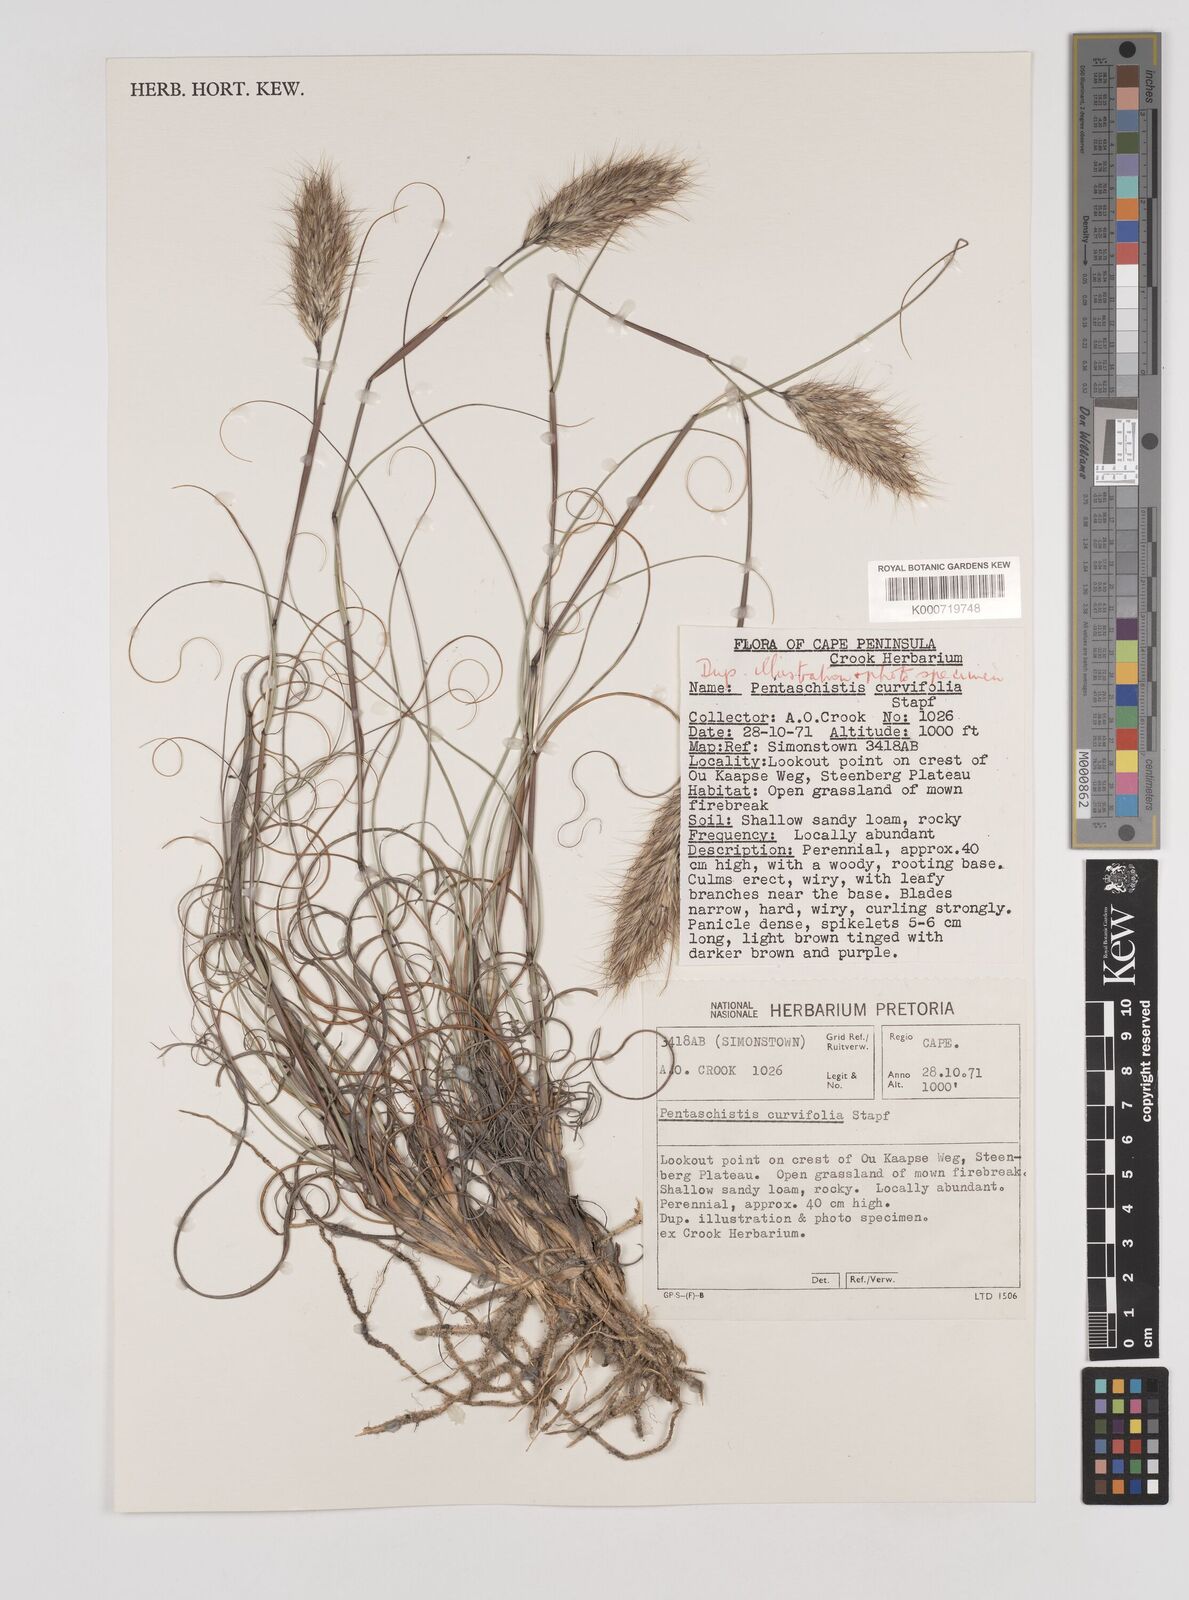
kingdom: Plantae
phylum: Tracheophyta
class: Liliopsida
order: Poales
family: Poaceae
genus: Pentameris
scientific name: Pentameris curvifolia
